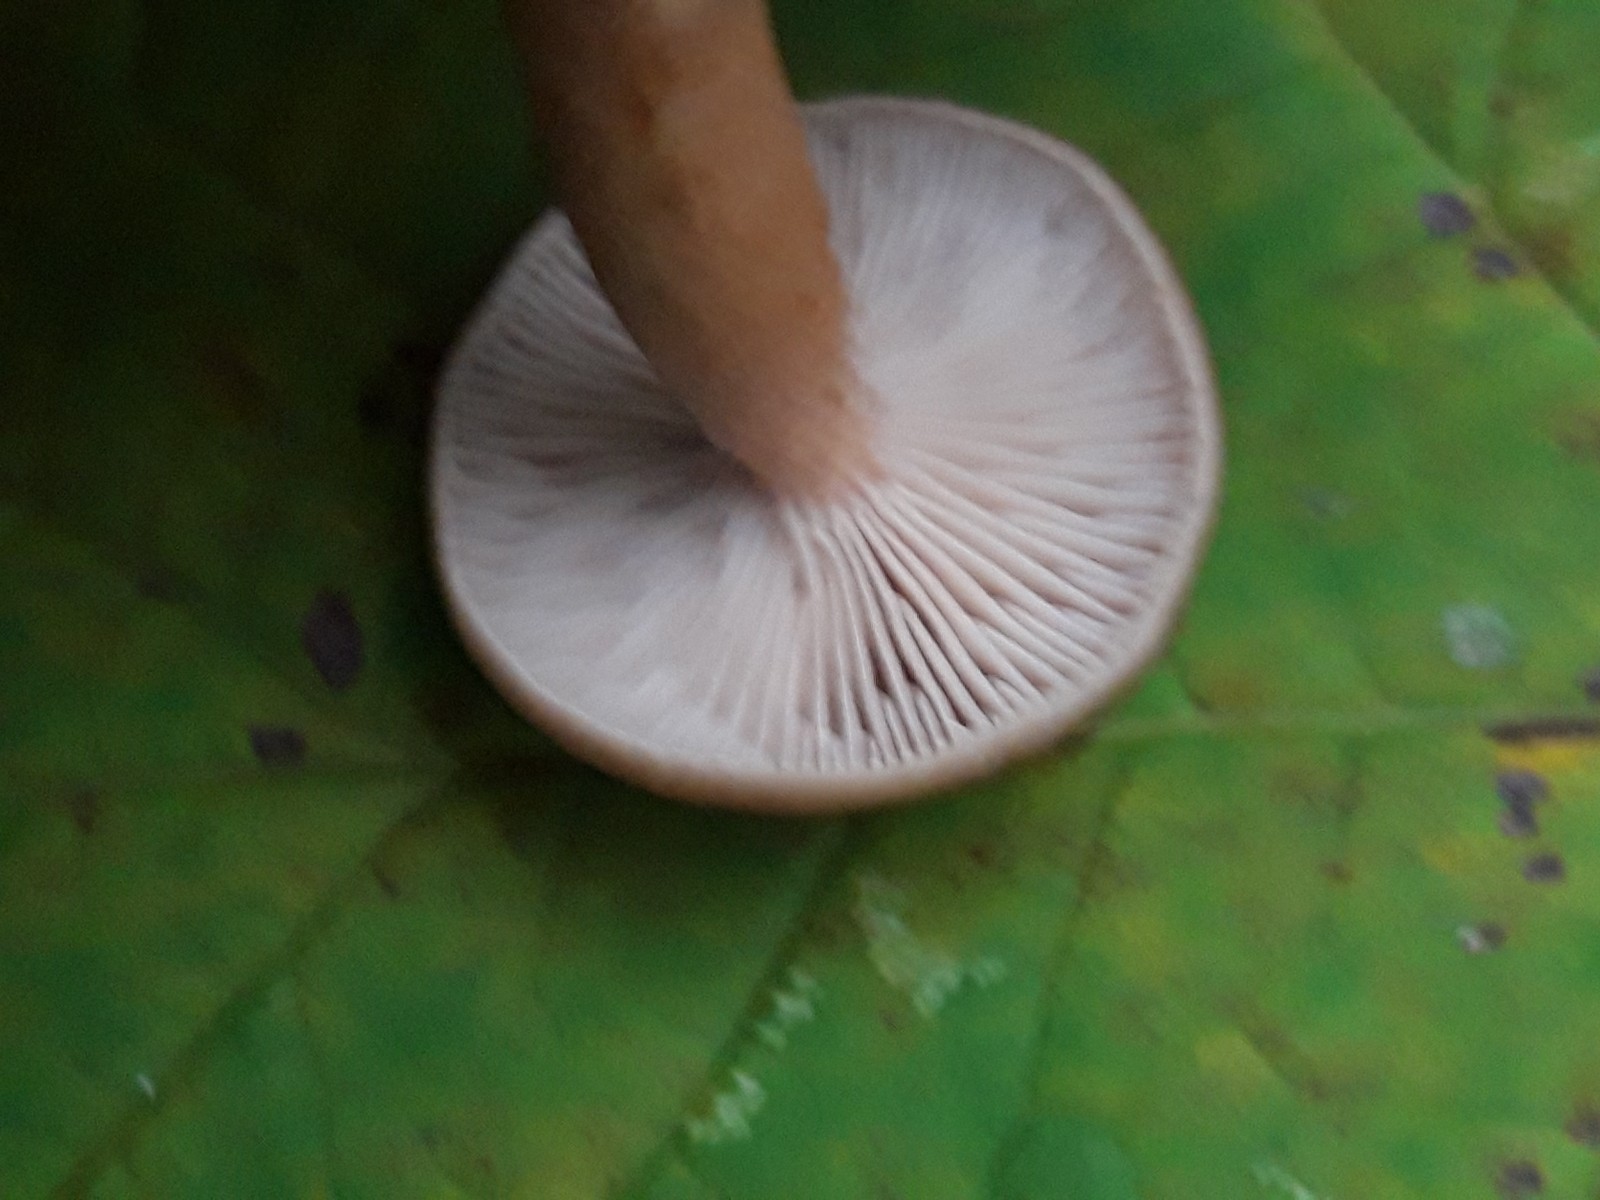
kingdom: Fungi
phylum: Basidiomycota
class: Agaricomycetes
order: Russulales
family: Russulaceae
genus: Lactarius
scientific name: Lactarius subdulcis
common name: sødlig mælkehat
